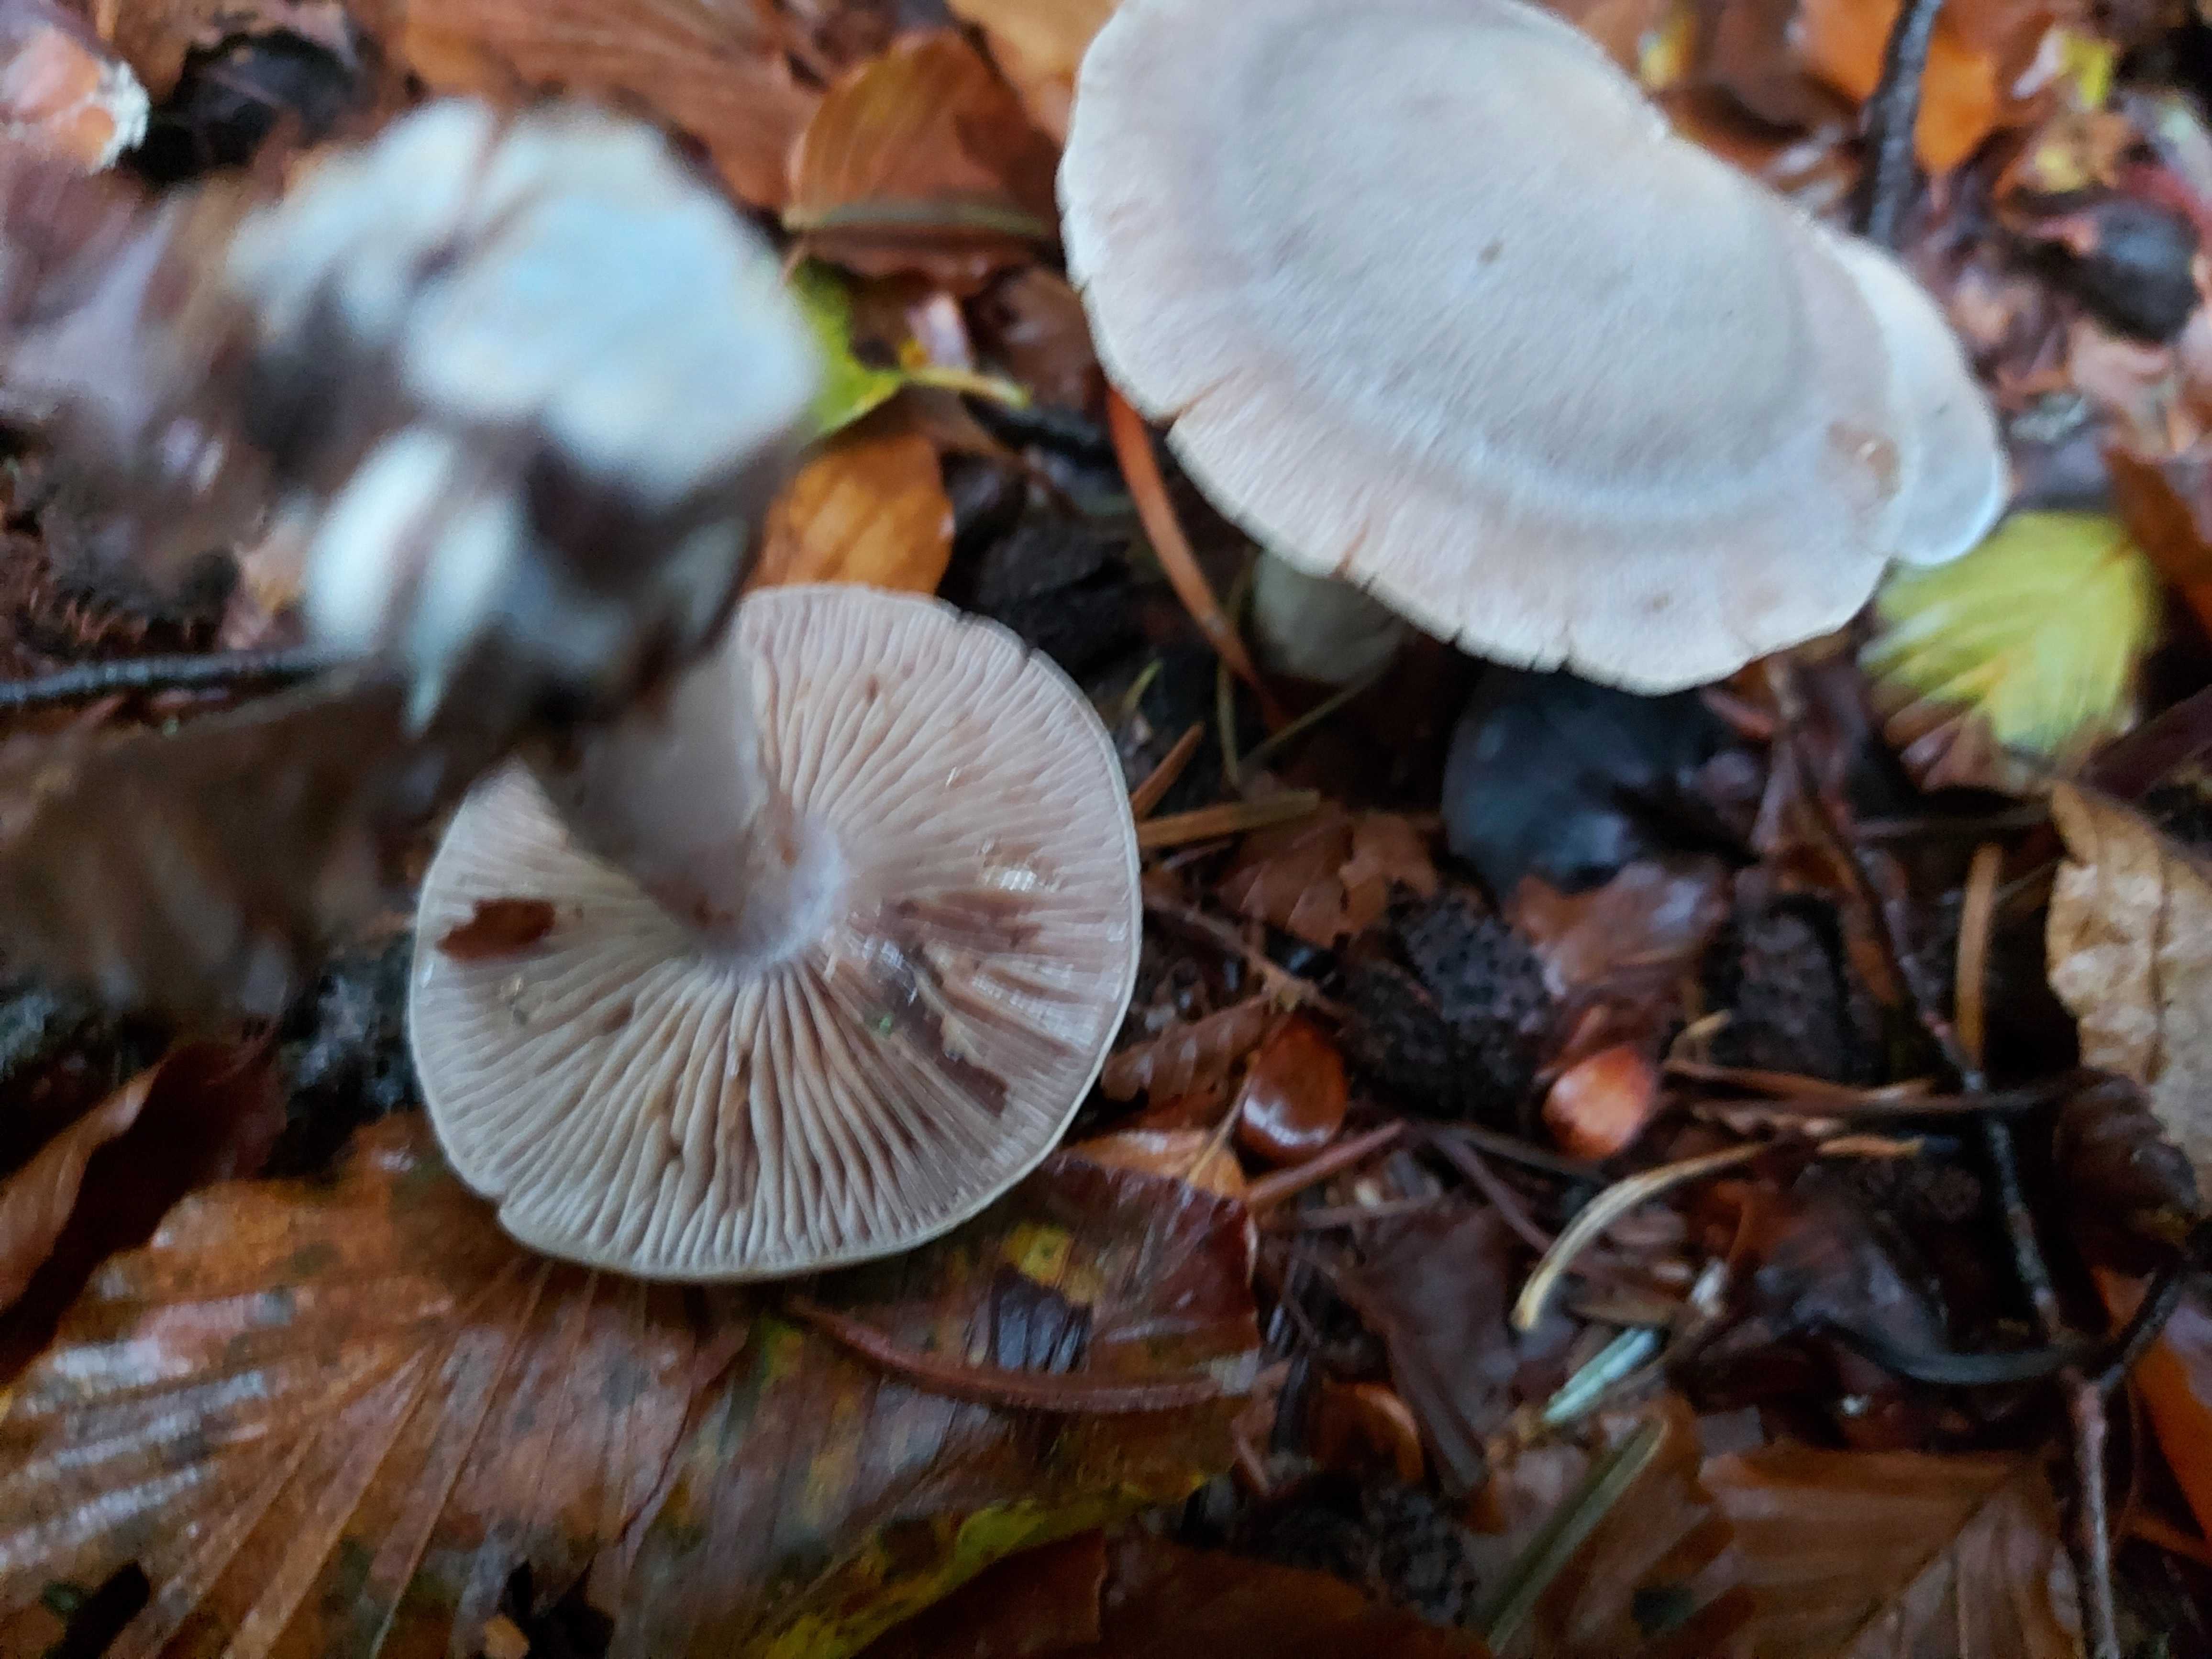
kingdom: Fungi
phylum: Basidiomycota
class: Agaricomycetes
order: Agaricales
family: Cortinariaceae
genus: Cortinarius
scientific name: Cortinarius alboviolaceus
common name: lysviolet slørhat
